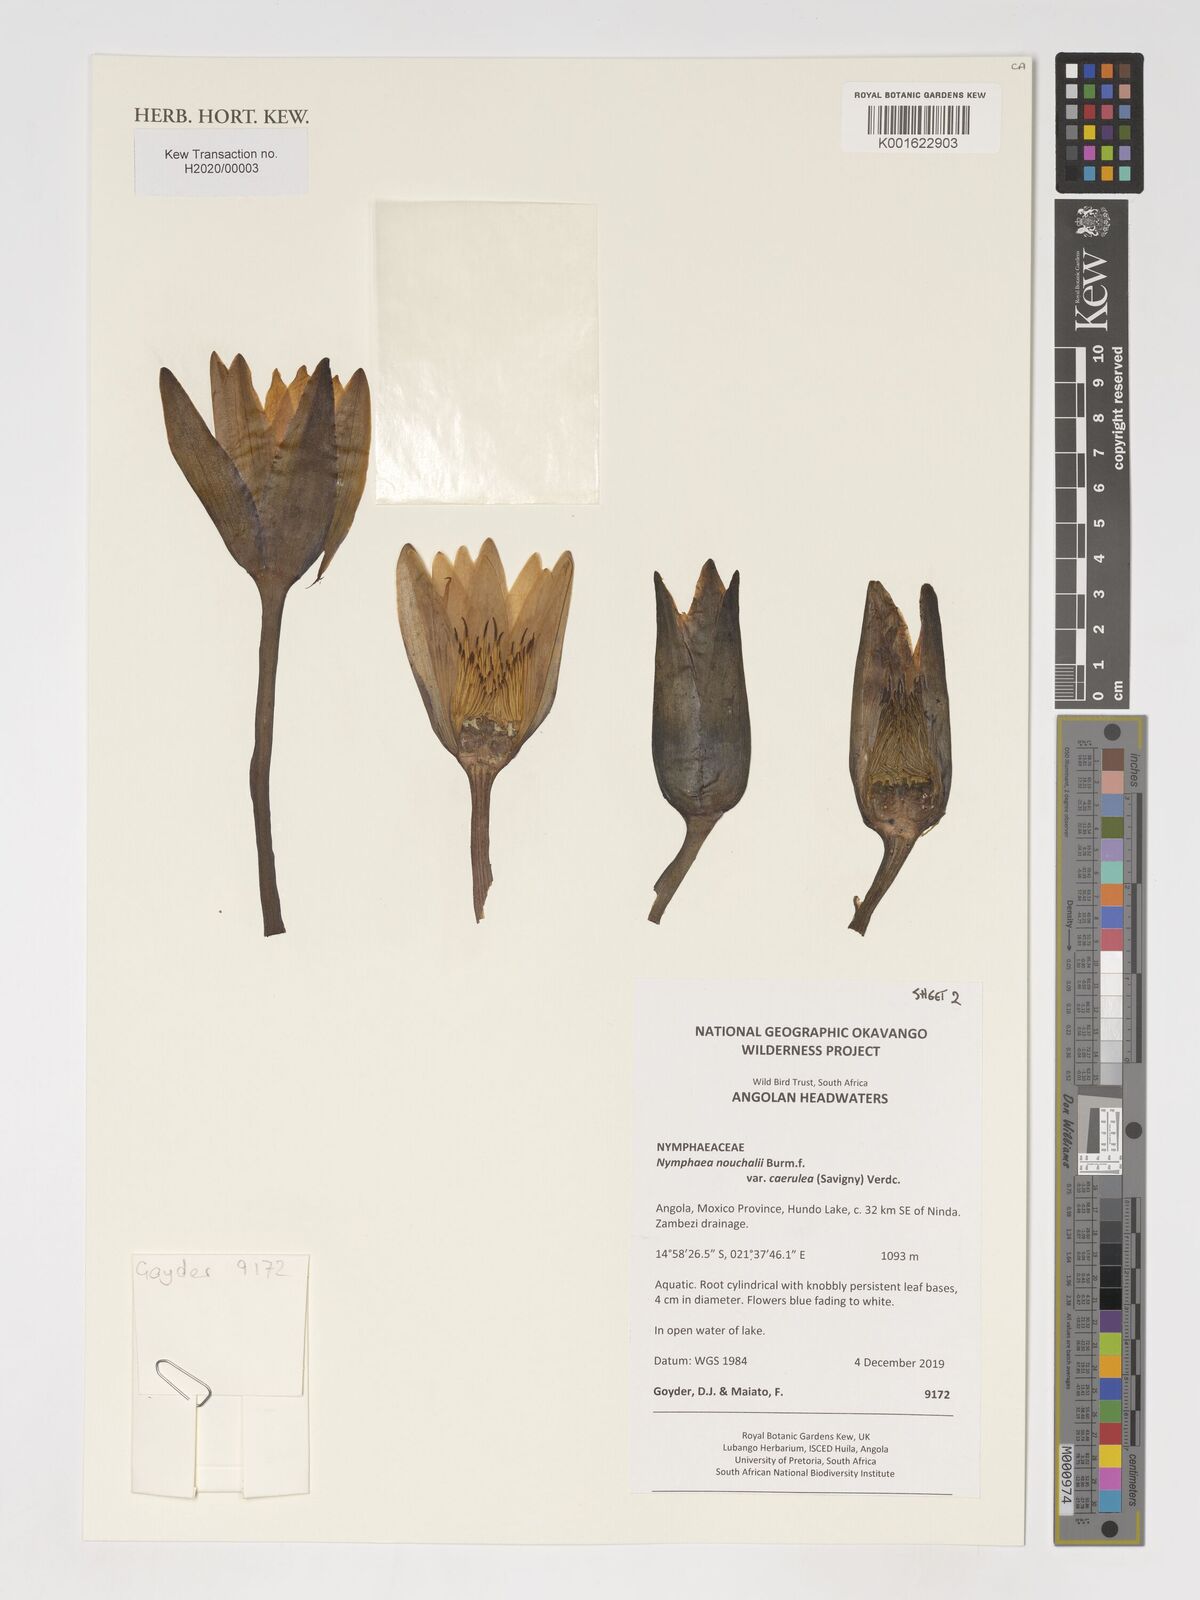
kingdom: Plantae
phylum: Tracheophyta
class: Magnoliopsida
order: Nymphaeales
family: Nymphaeaceae
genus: Nymphaea
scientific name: Nymphaea nouchali
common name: Blue lotus
